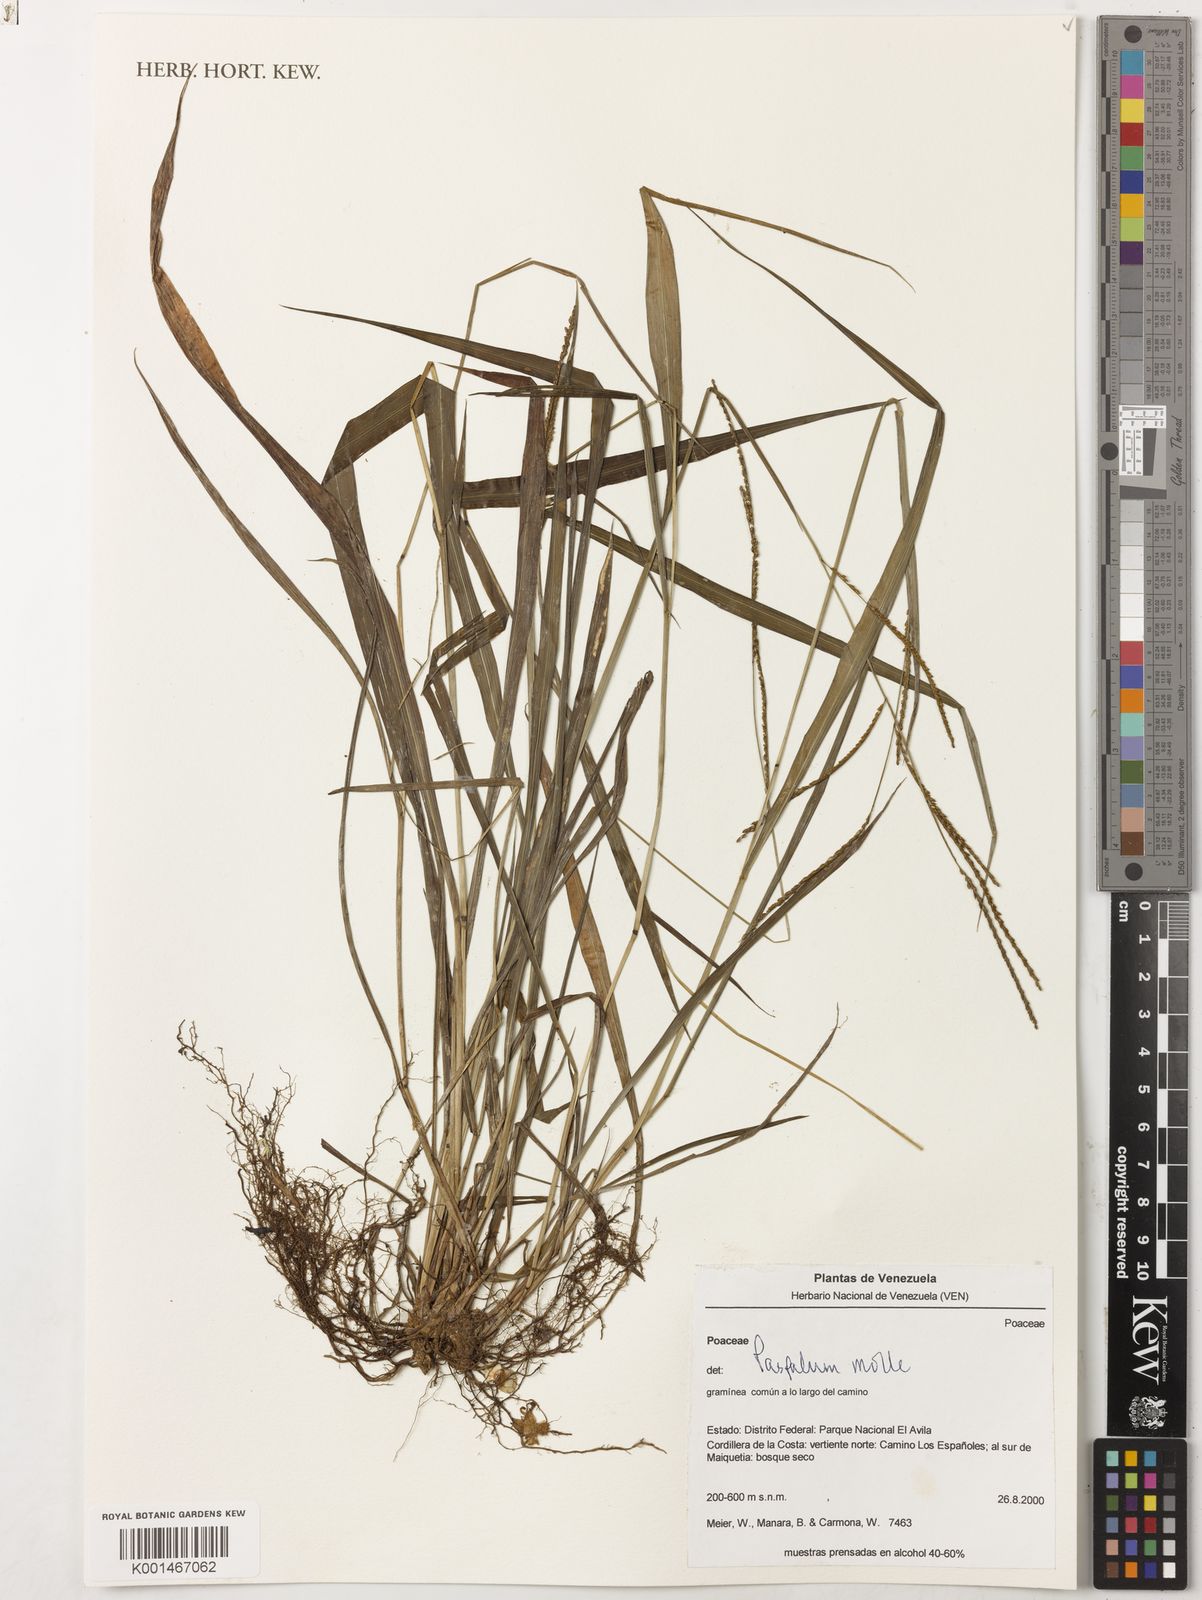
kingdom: Plantae
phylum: Tracheophyta
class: Liliopsida
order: Poales
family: Poaceae
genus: Paspalum
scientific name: Paspalum molle
